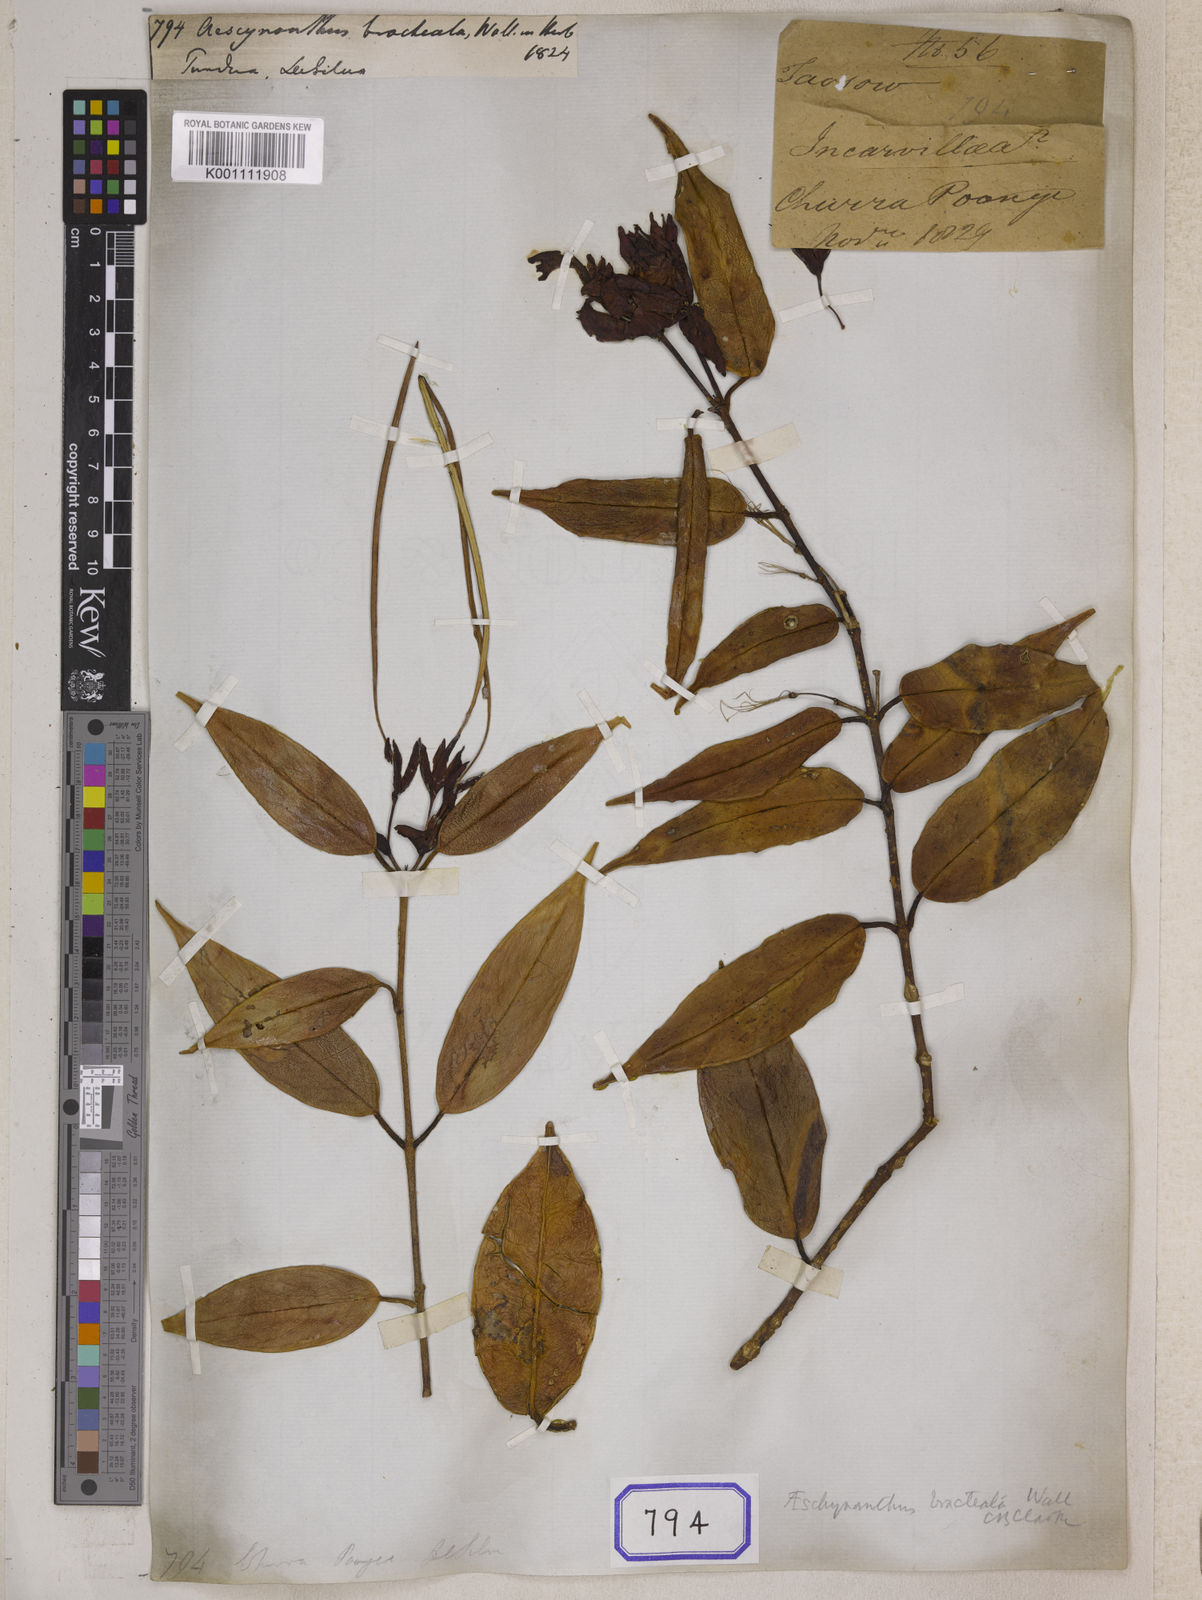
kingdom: Plantae
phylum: Tracheophyta
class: Magnoliopsida
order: Lamiales
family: Gesneriaceae
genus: Aeschynanthus
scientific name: Aeschynanthus
